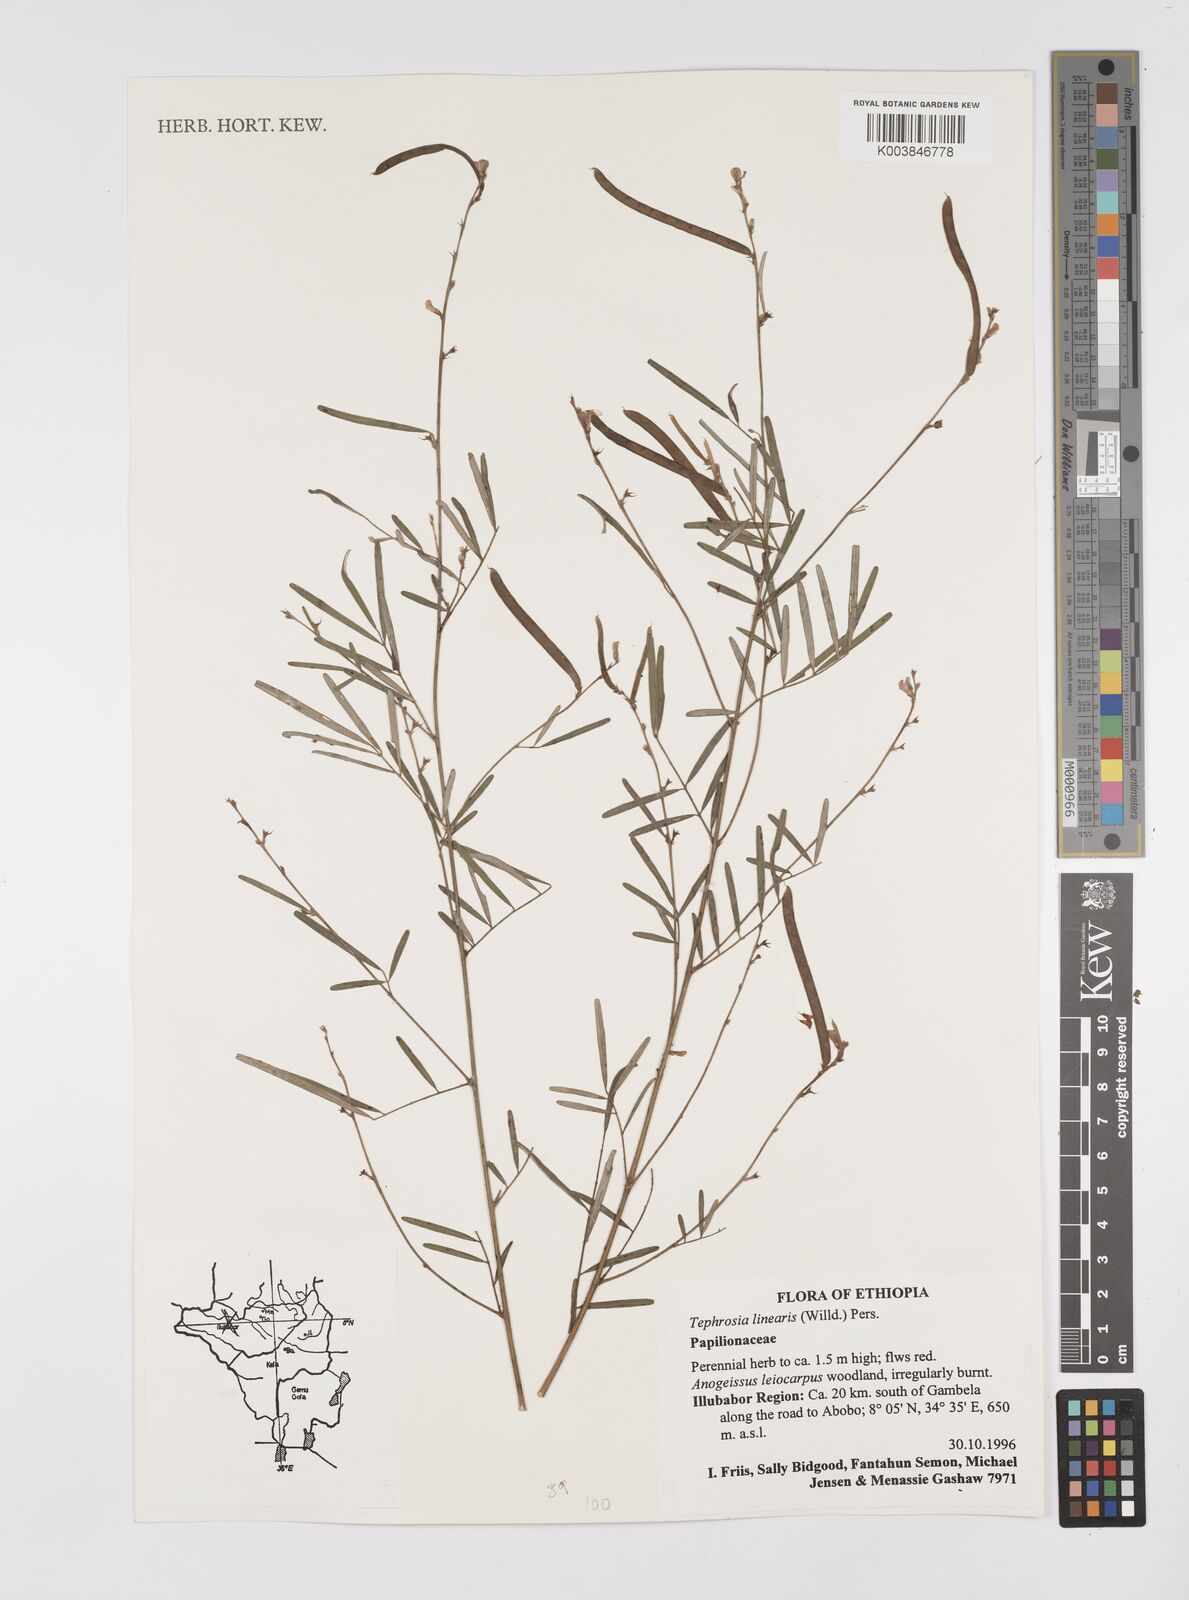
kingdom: Plantae
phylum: Tracheophyta
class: Magnoliopsida
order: Fabales
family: Fabaceae
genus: Tephrosia
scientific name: Tephrosia linearis
